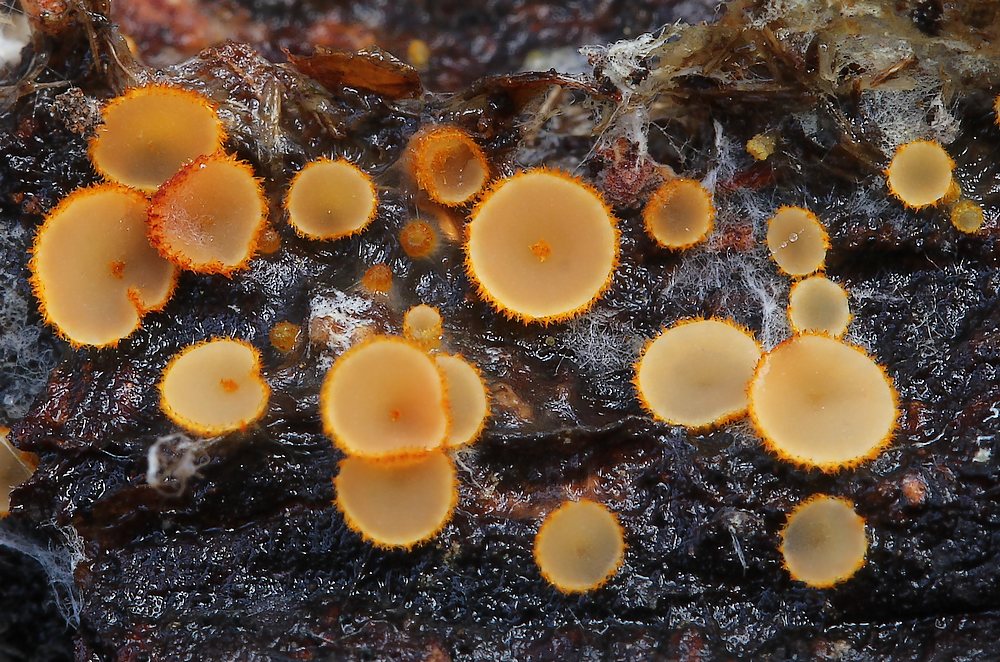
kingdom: Fungi
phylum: Ascomycota
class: Leotiomycetes
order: Helotiales
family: Arachnopezizaceae
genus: Arachnopeziza
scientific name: Arachnopeziza aurelia
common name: flamme-spindskive
